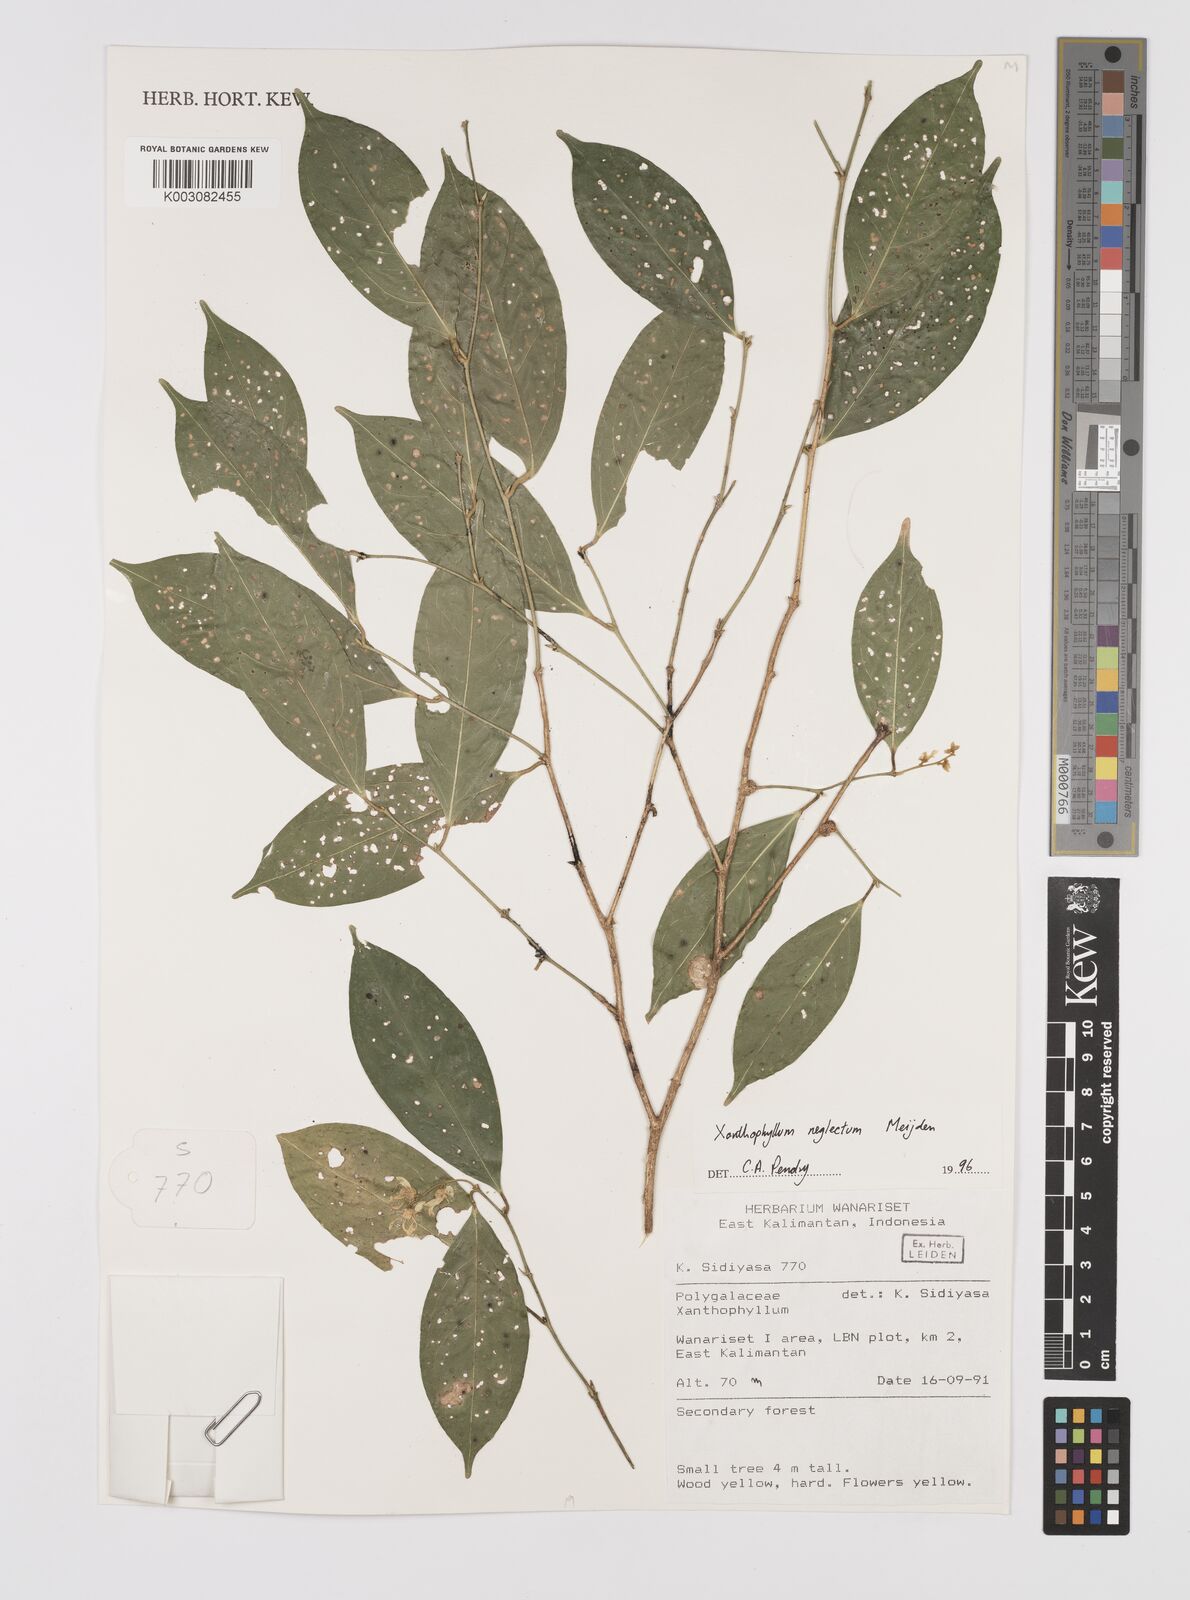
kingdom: Plantae
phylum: Tracheophyta
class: Magnoliopsida
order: Fabales
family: Polygalaceae
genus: Xanthophyllum
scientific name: Xanthophyllum neglectum
